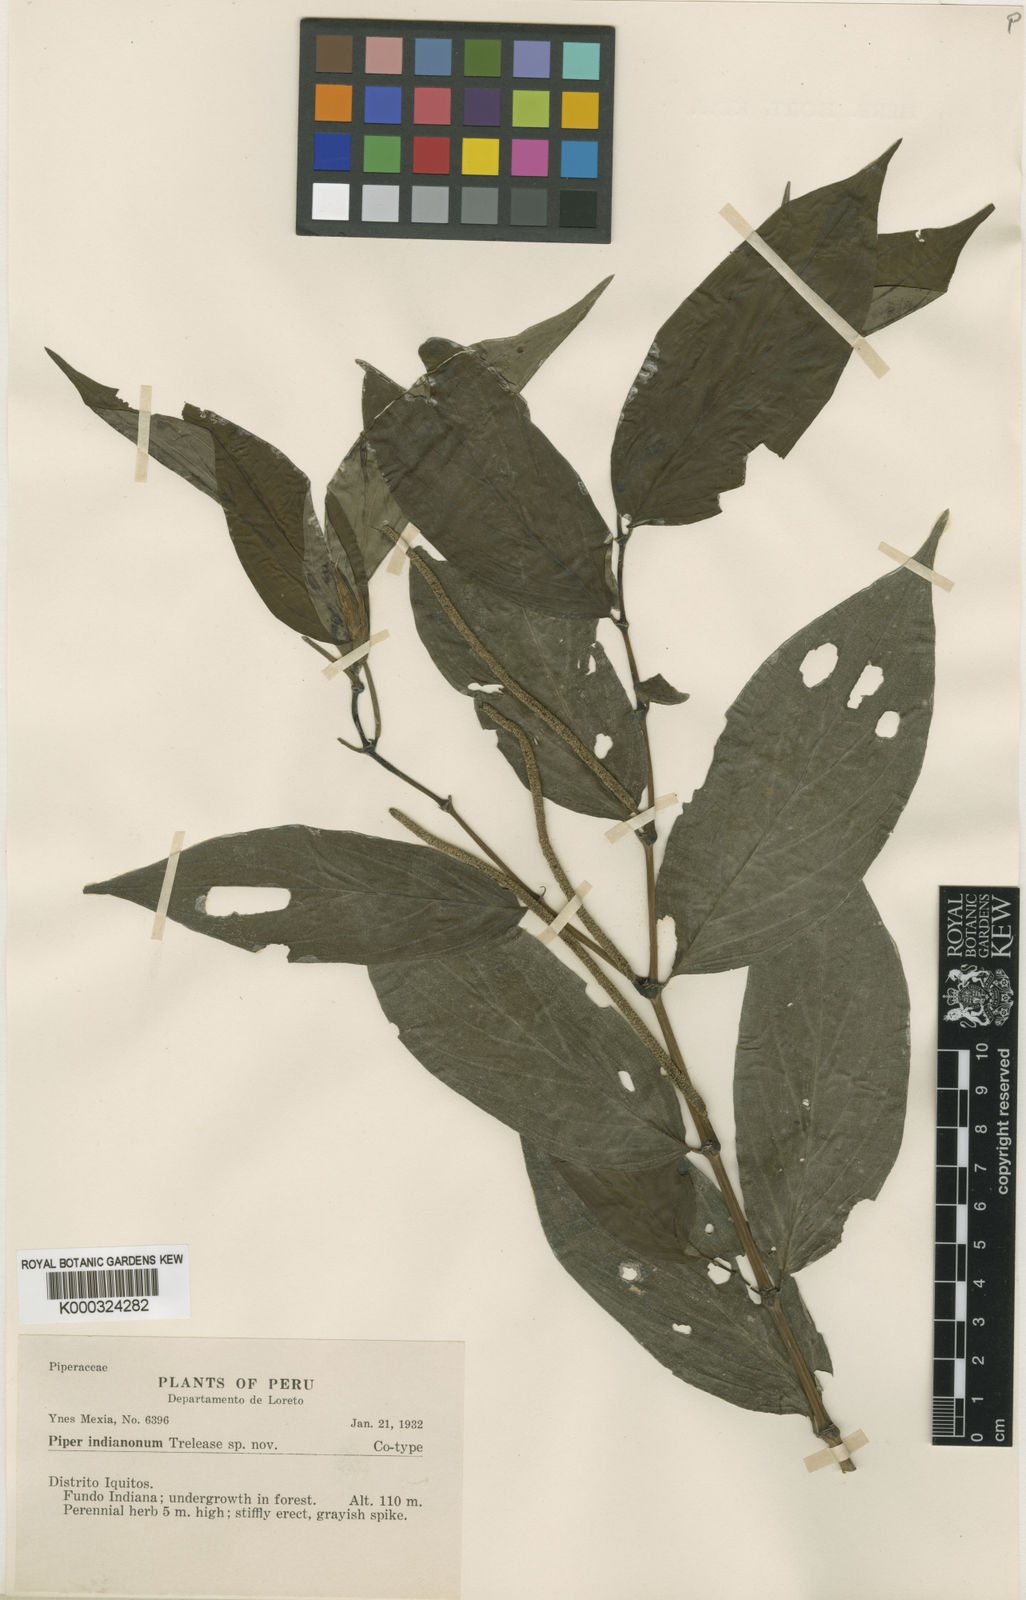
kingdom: Plantae
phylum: Tracheophyta
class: Magnoliopsida
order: Piperales
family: Piperaceae
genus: Piper
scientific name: Piper indianonum
